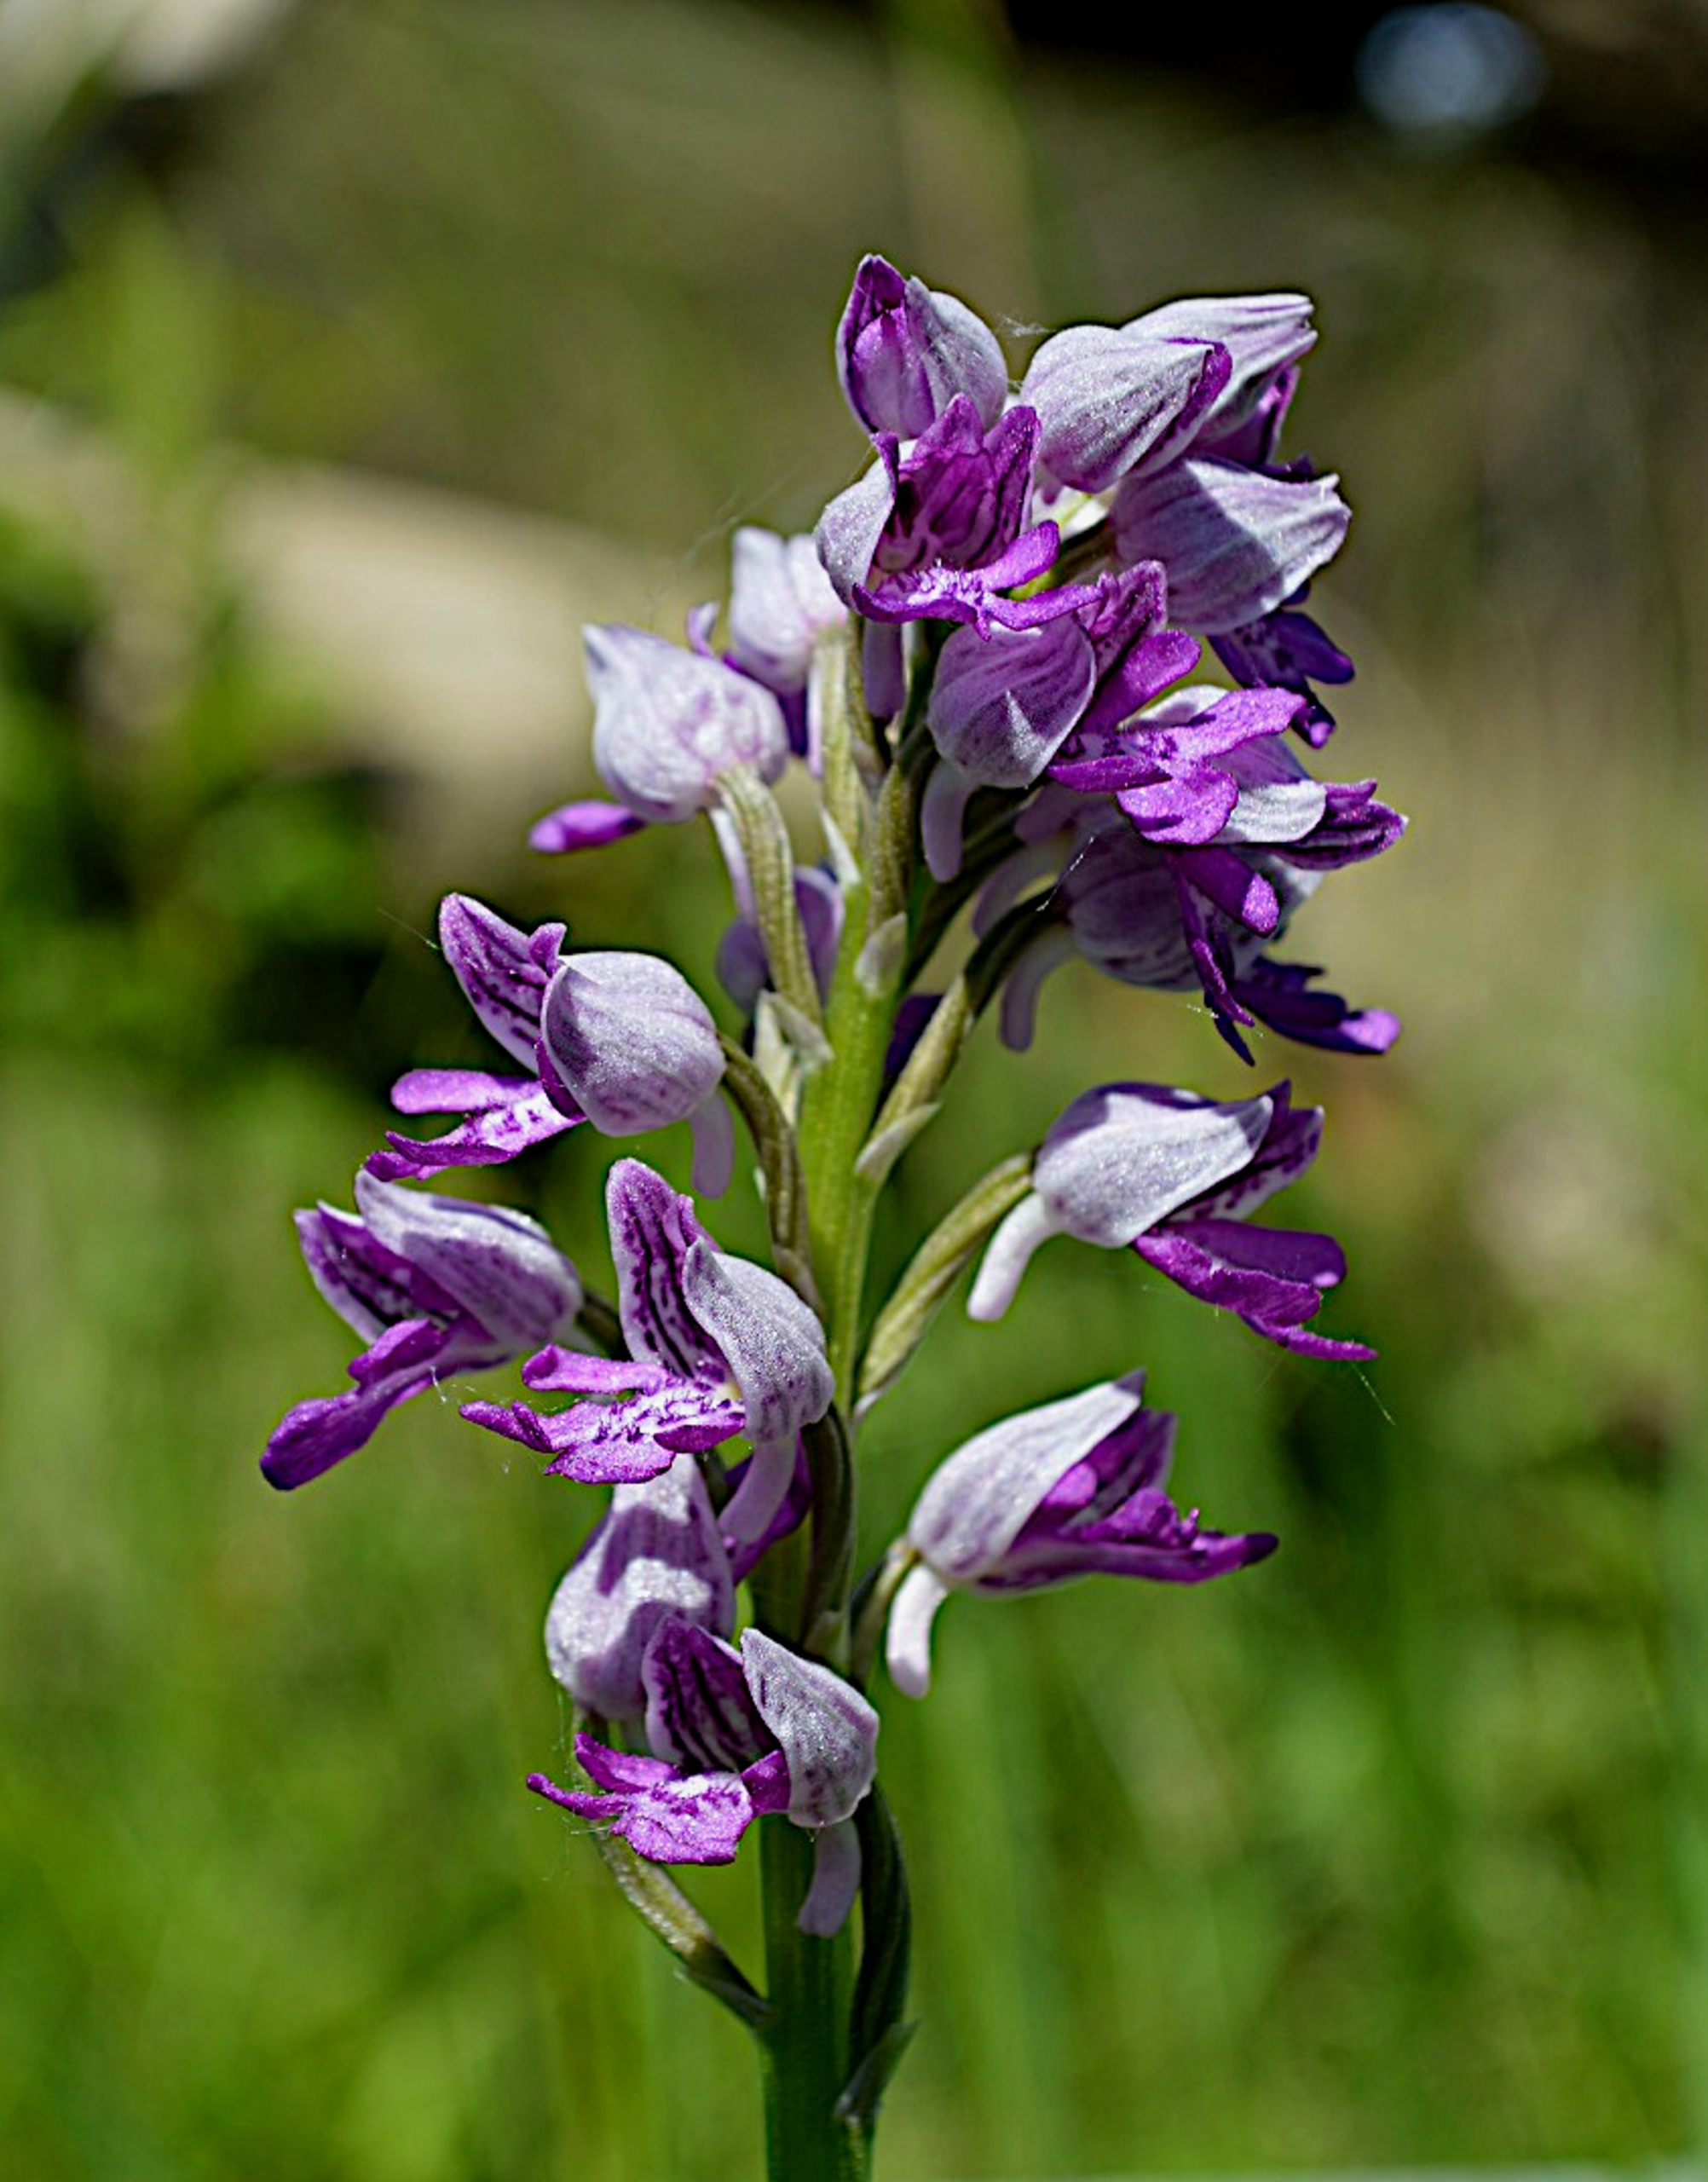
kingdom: Plantae
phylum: Tracheophyta
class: Liliopsida
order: Asparagales
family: Orchidaceae
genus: Orchis
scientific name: Orchis militaris
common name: Ridder-gøgeurt
